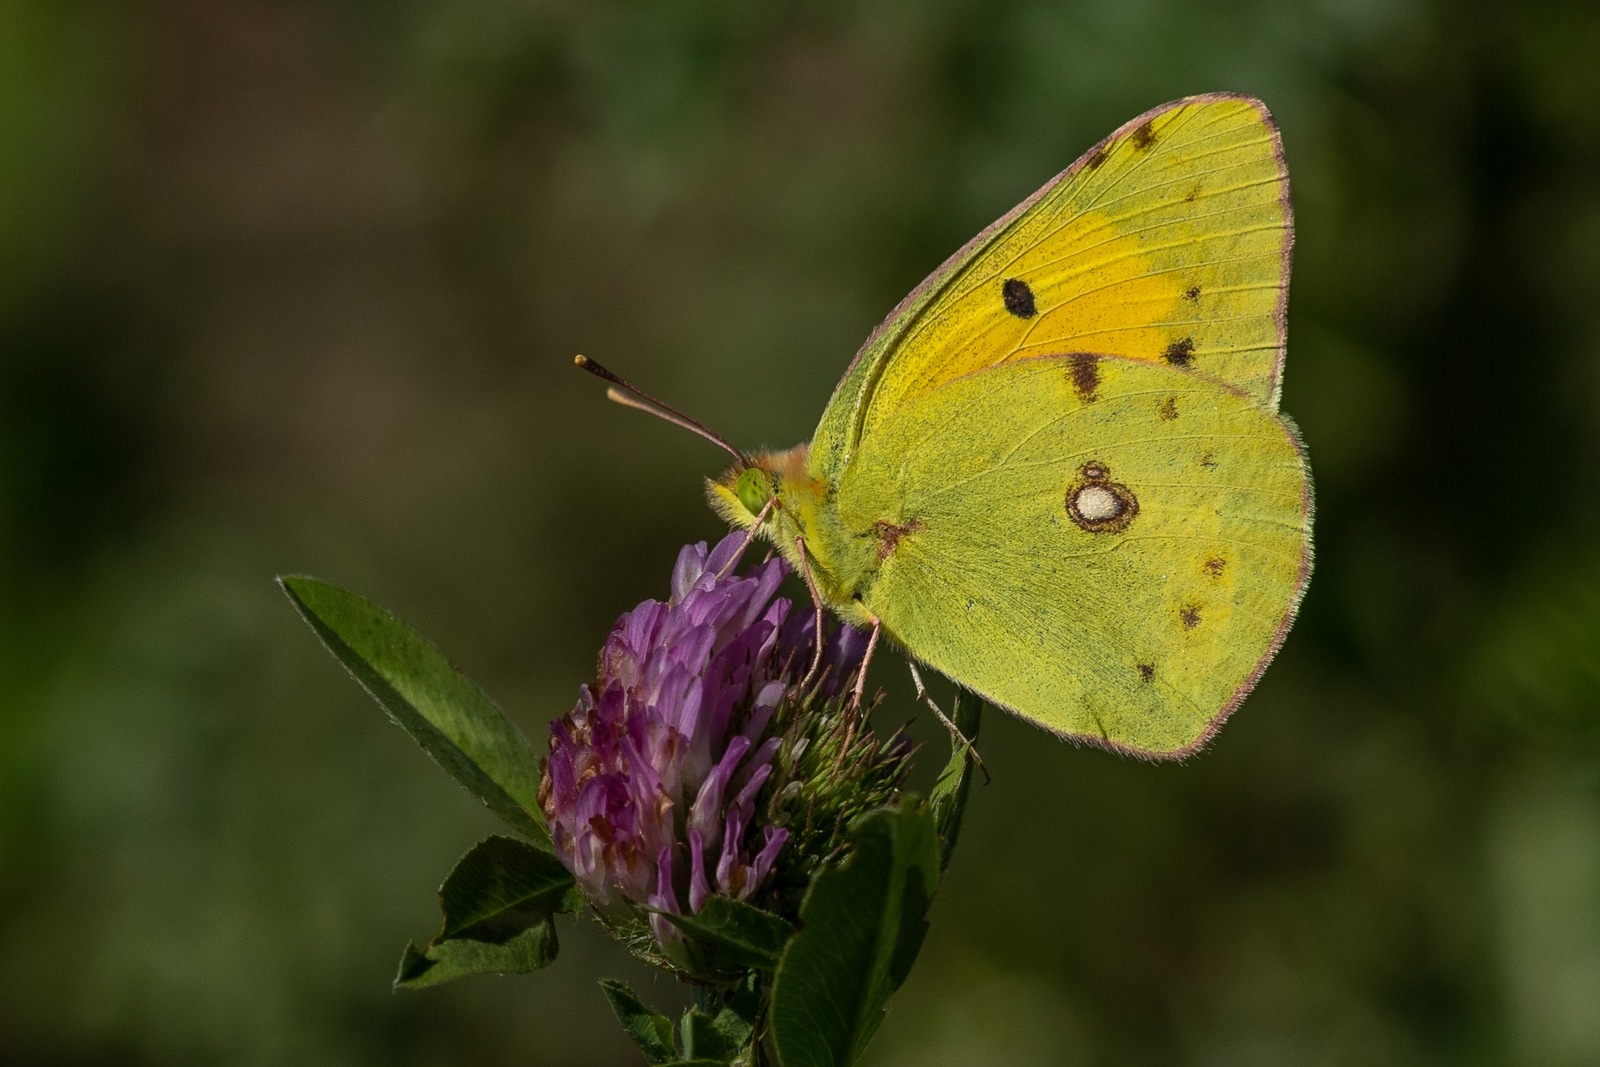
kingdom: Animalia
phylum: Arthropoda
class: Insecta
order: Lepidoptera
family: Pieridae
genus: Colias
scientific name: Colias croceus
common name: Orange høsommerfugl
